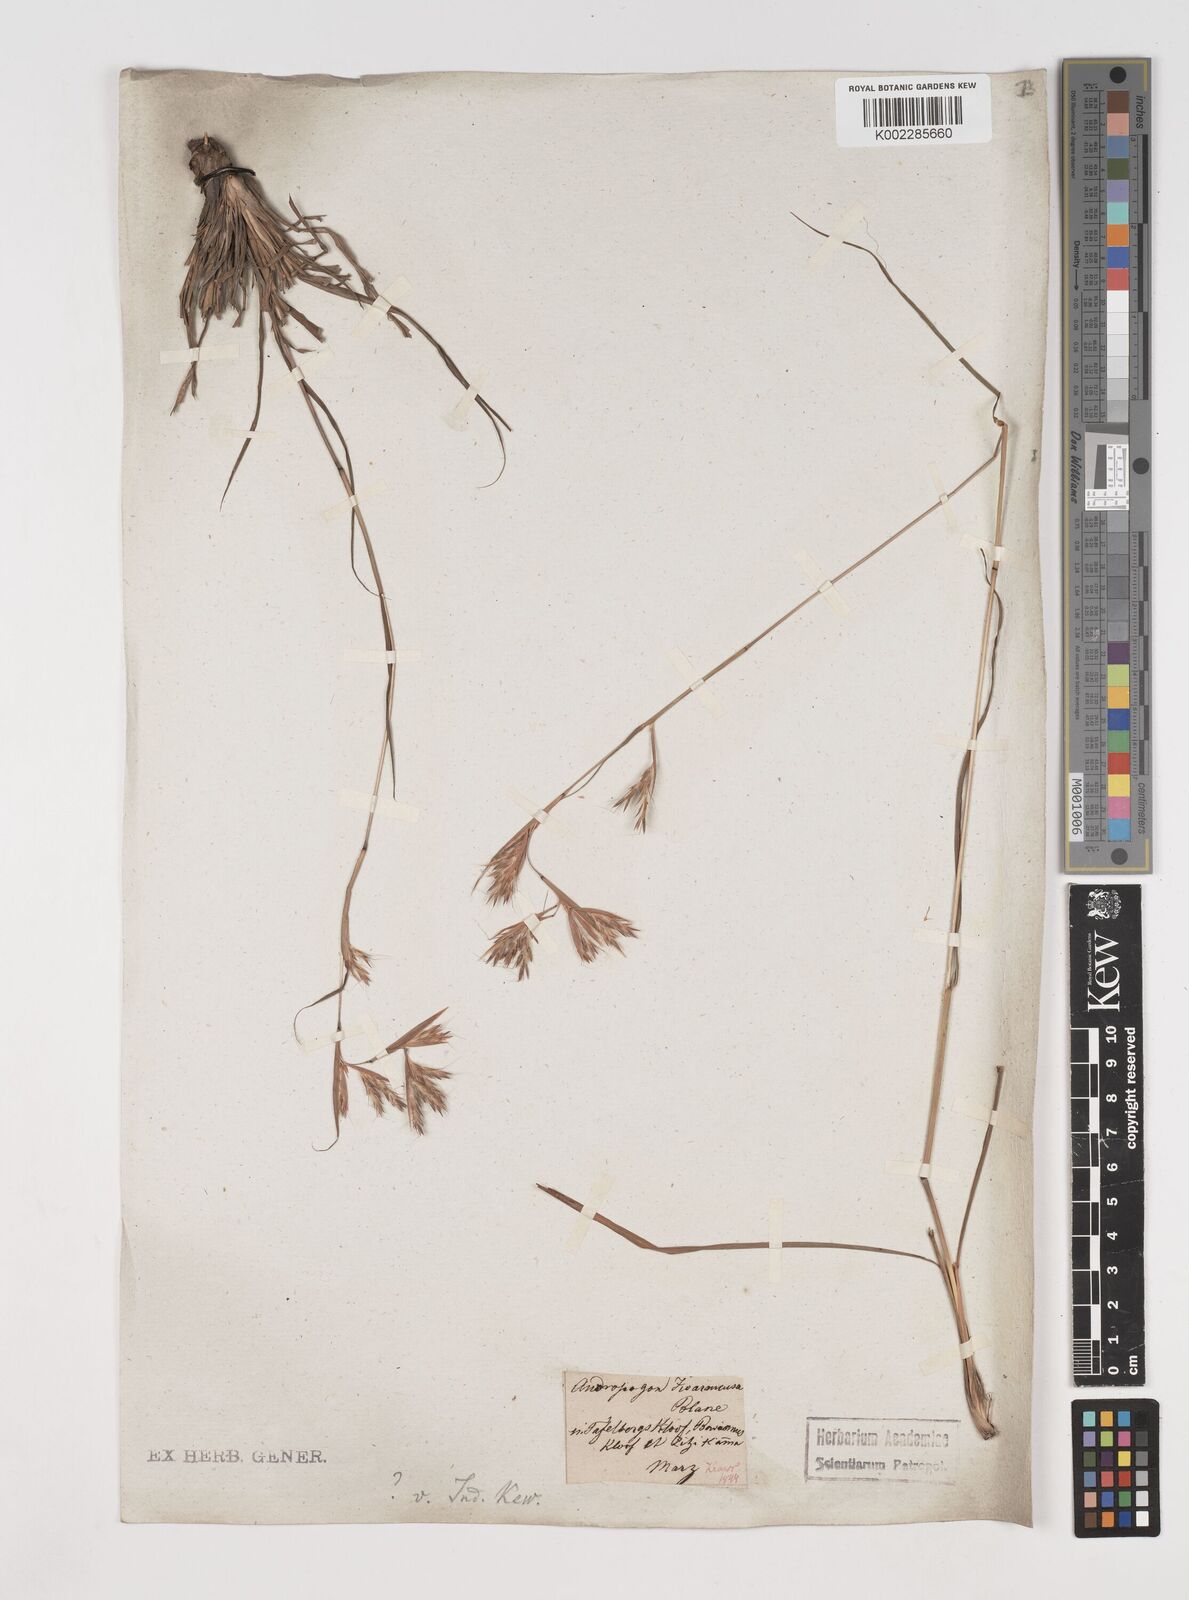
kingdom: Plantae
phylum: Tracheophyta
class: Liliopsida
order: Poales
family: Poaceae
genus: Cymbopogon
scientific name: Cymbopogon marginatus
